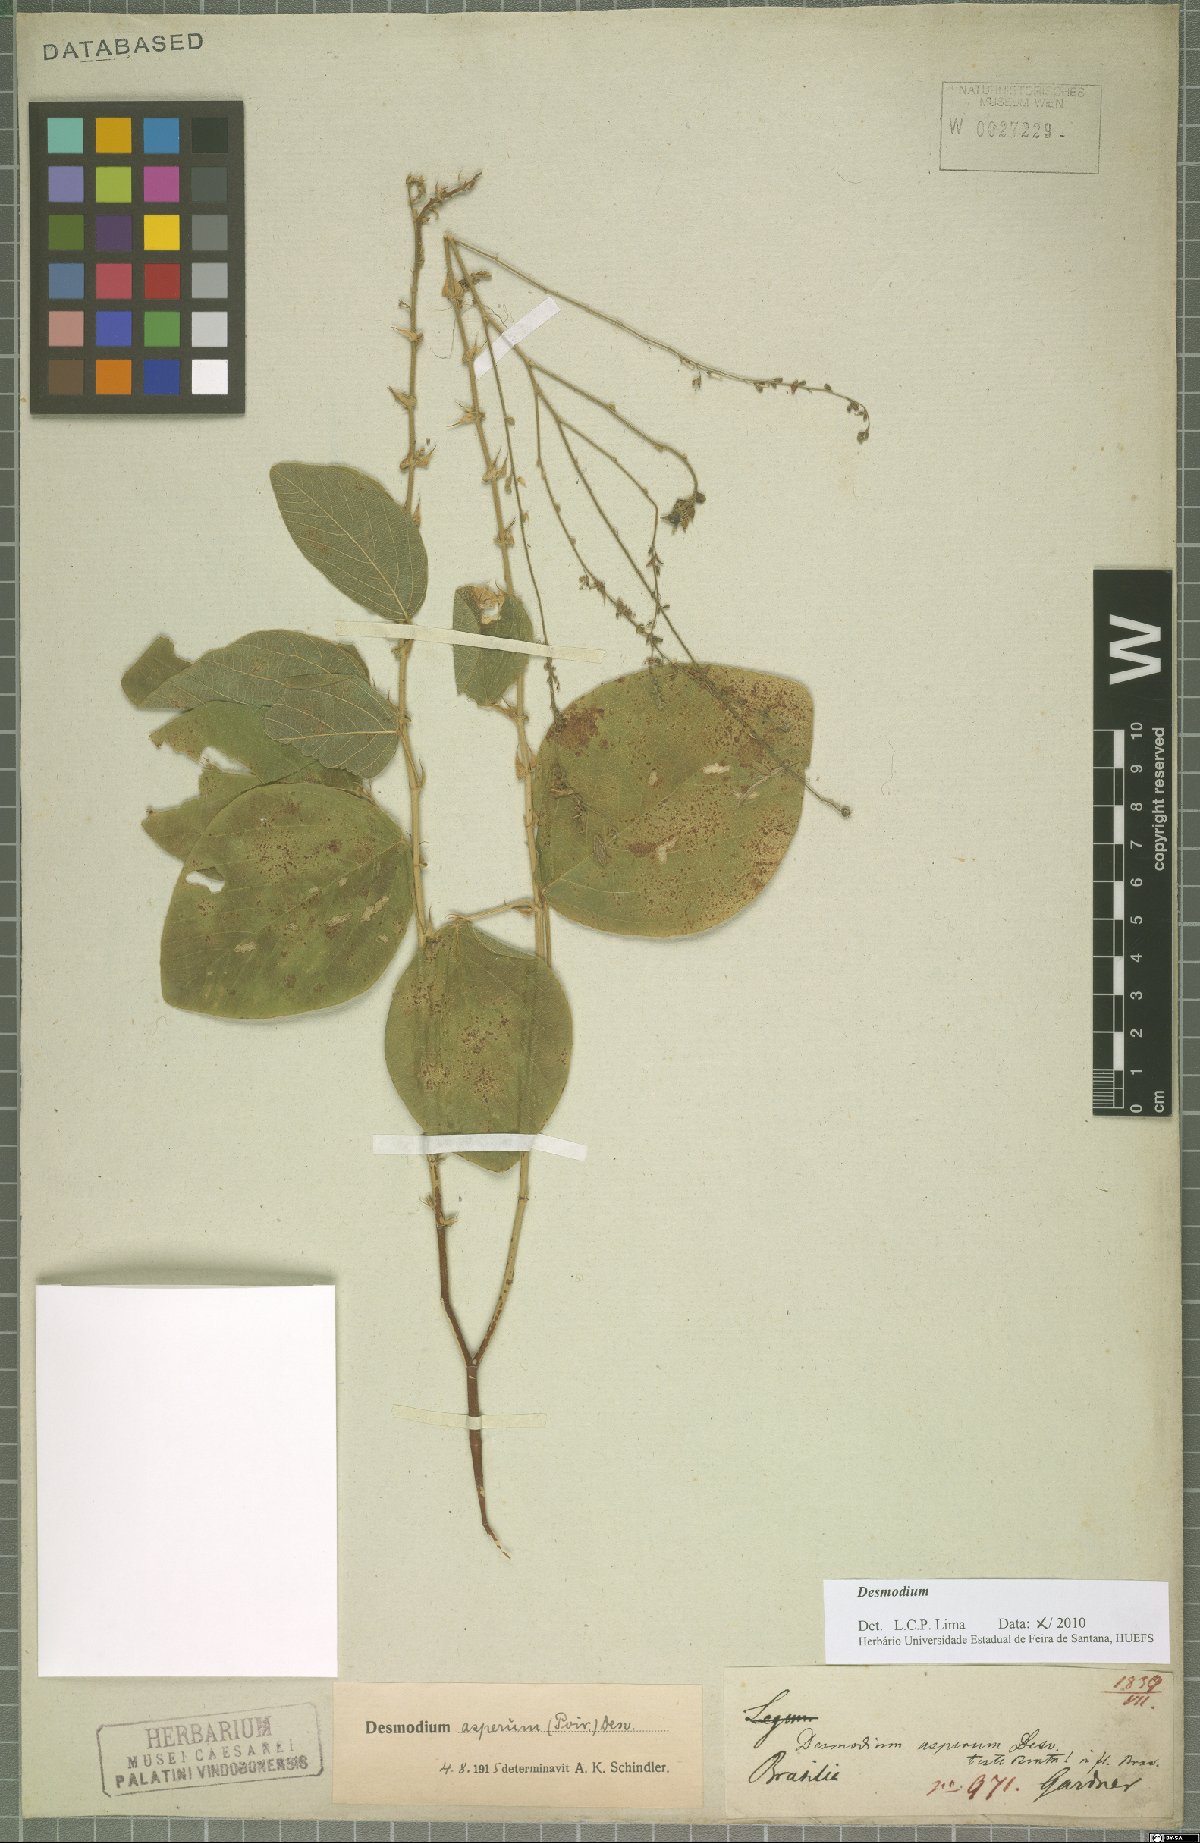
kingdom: Plantae
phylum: Tracheophyta
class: Magnoliopsida
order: Fabales
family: Fabaceae
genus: Desmodium
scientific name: Desmodium
